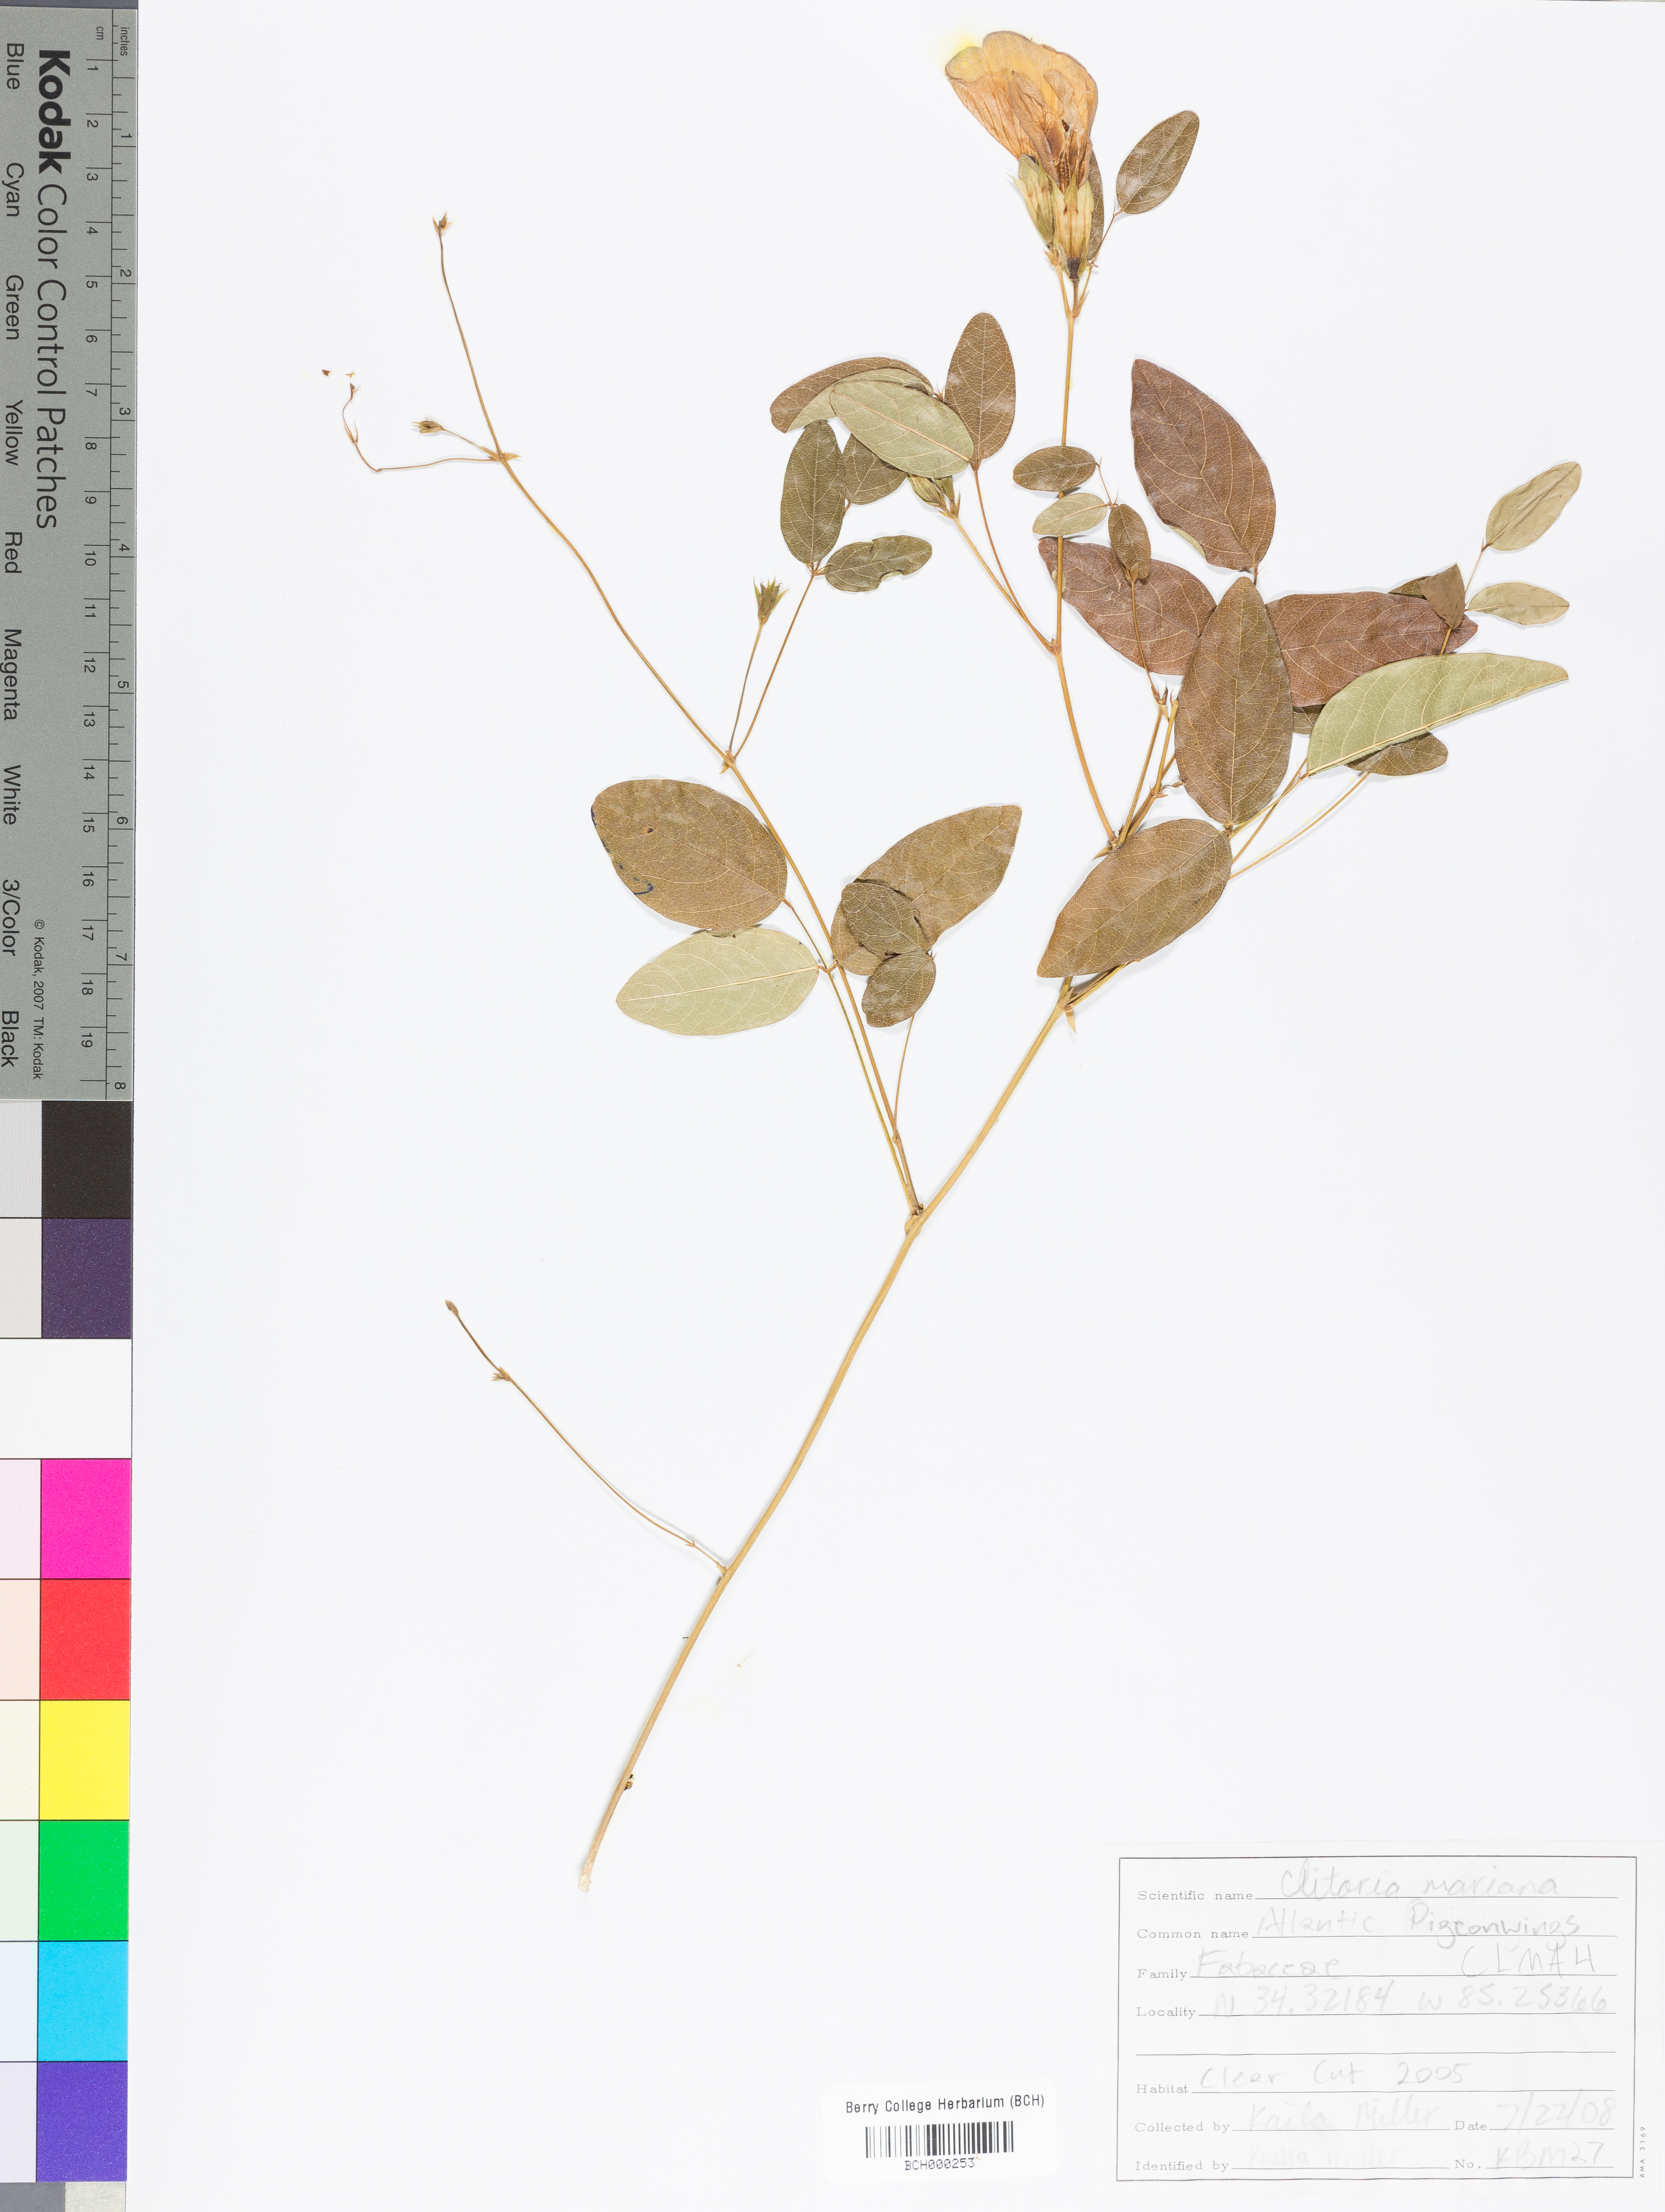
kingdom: Plantae
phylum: Tracheophyta
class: Magnoliopsida
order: Fabales
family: Fabaceae
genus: Clitoria
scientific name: Clitoria mariana
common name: Butterfly-pea
